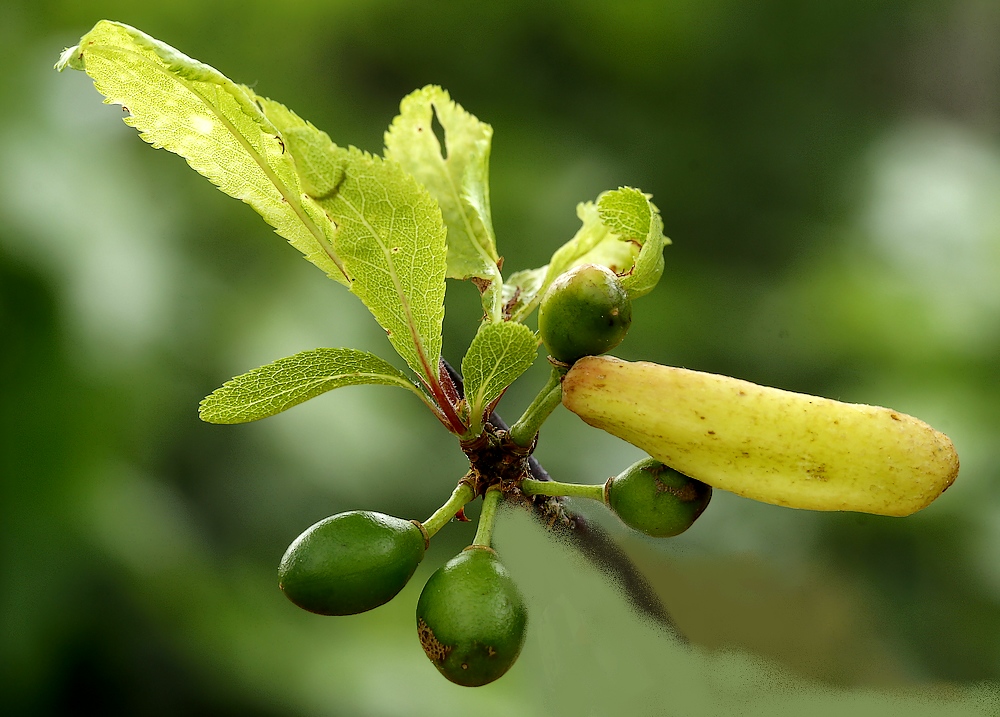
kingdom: Fungi
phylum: Ascomycota
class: Taphrinomycetes
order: Taphrinales
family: Taphrinaceae
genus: Taphrina
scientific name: Taphrina pruni
